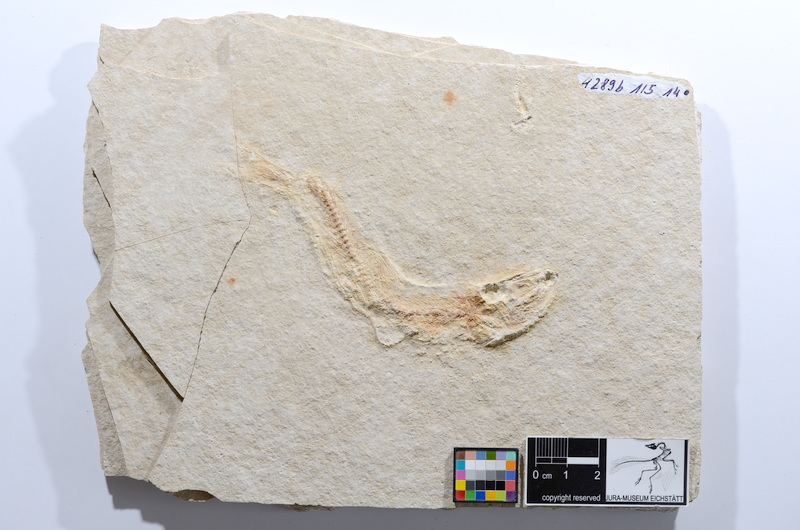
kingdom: Animalia
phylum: Chordata
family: Ascalaboidae
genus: Tharsis
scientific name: Tharsis dubius
